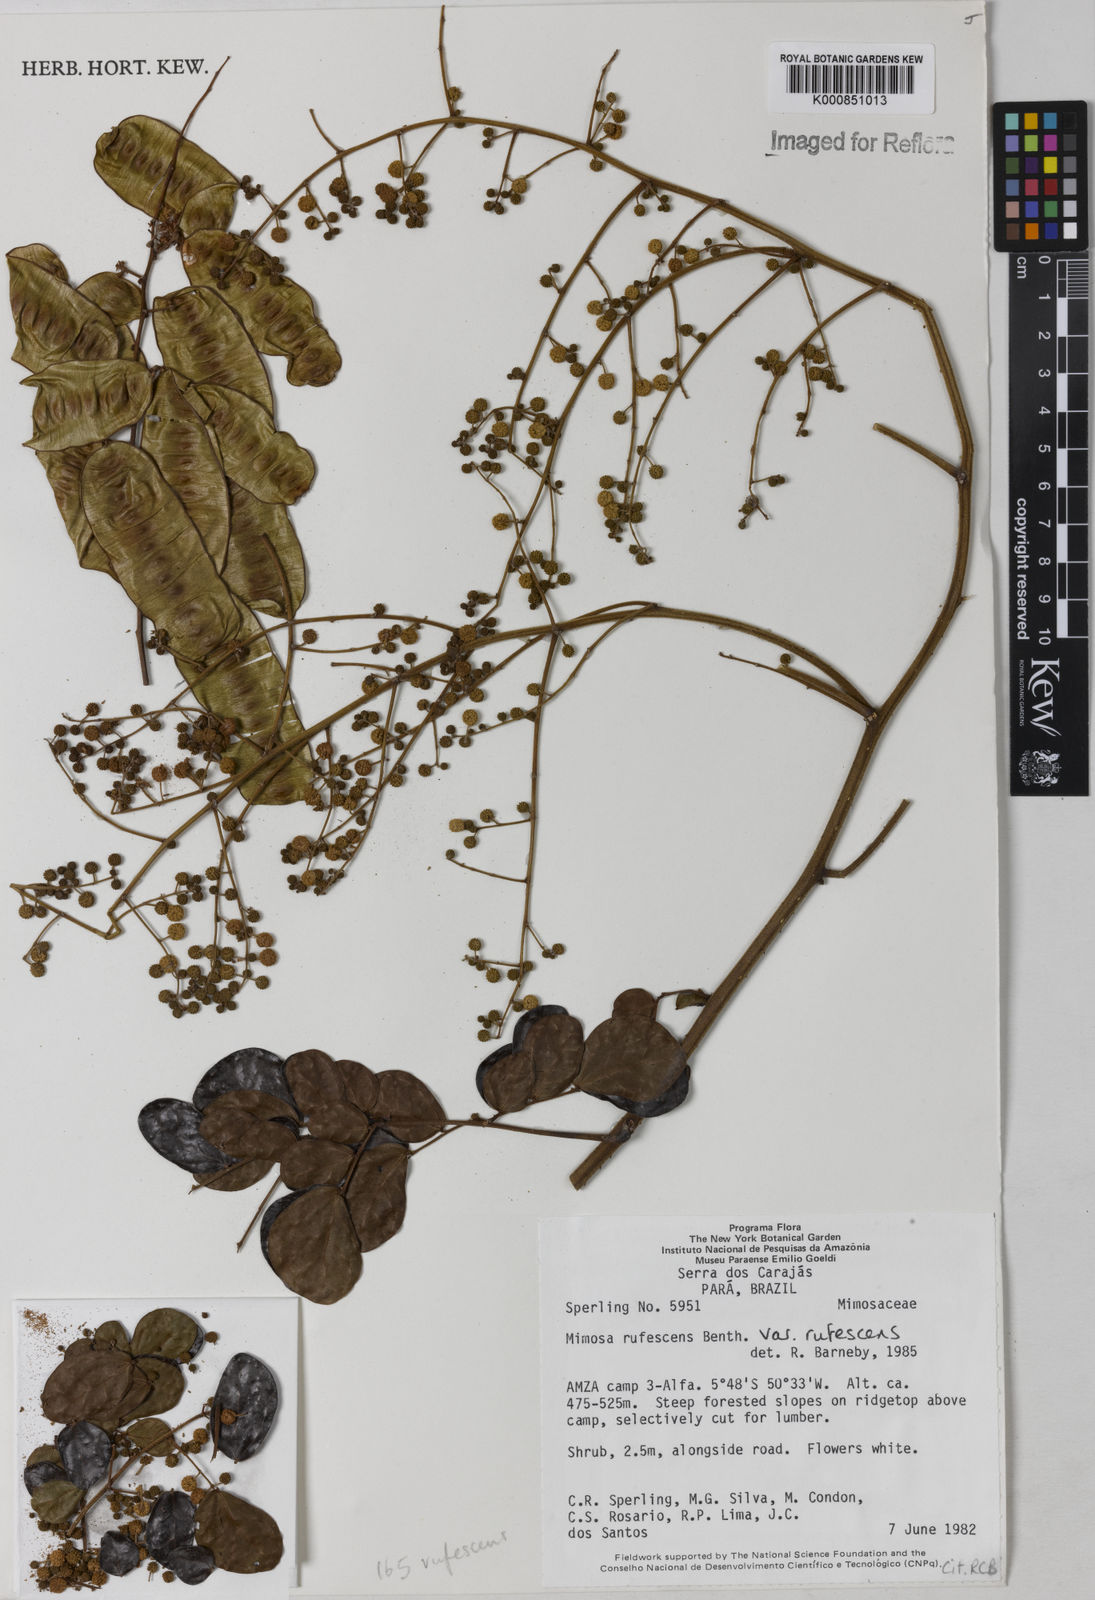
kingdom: Plantae
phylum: Tracheophyta
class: Magnoliopsida
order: Fabales
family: Fabaceae
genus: Mimosa
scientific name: Mimosa rufescens
